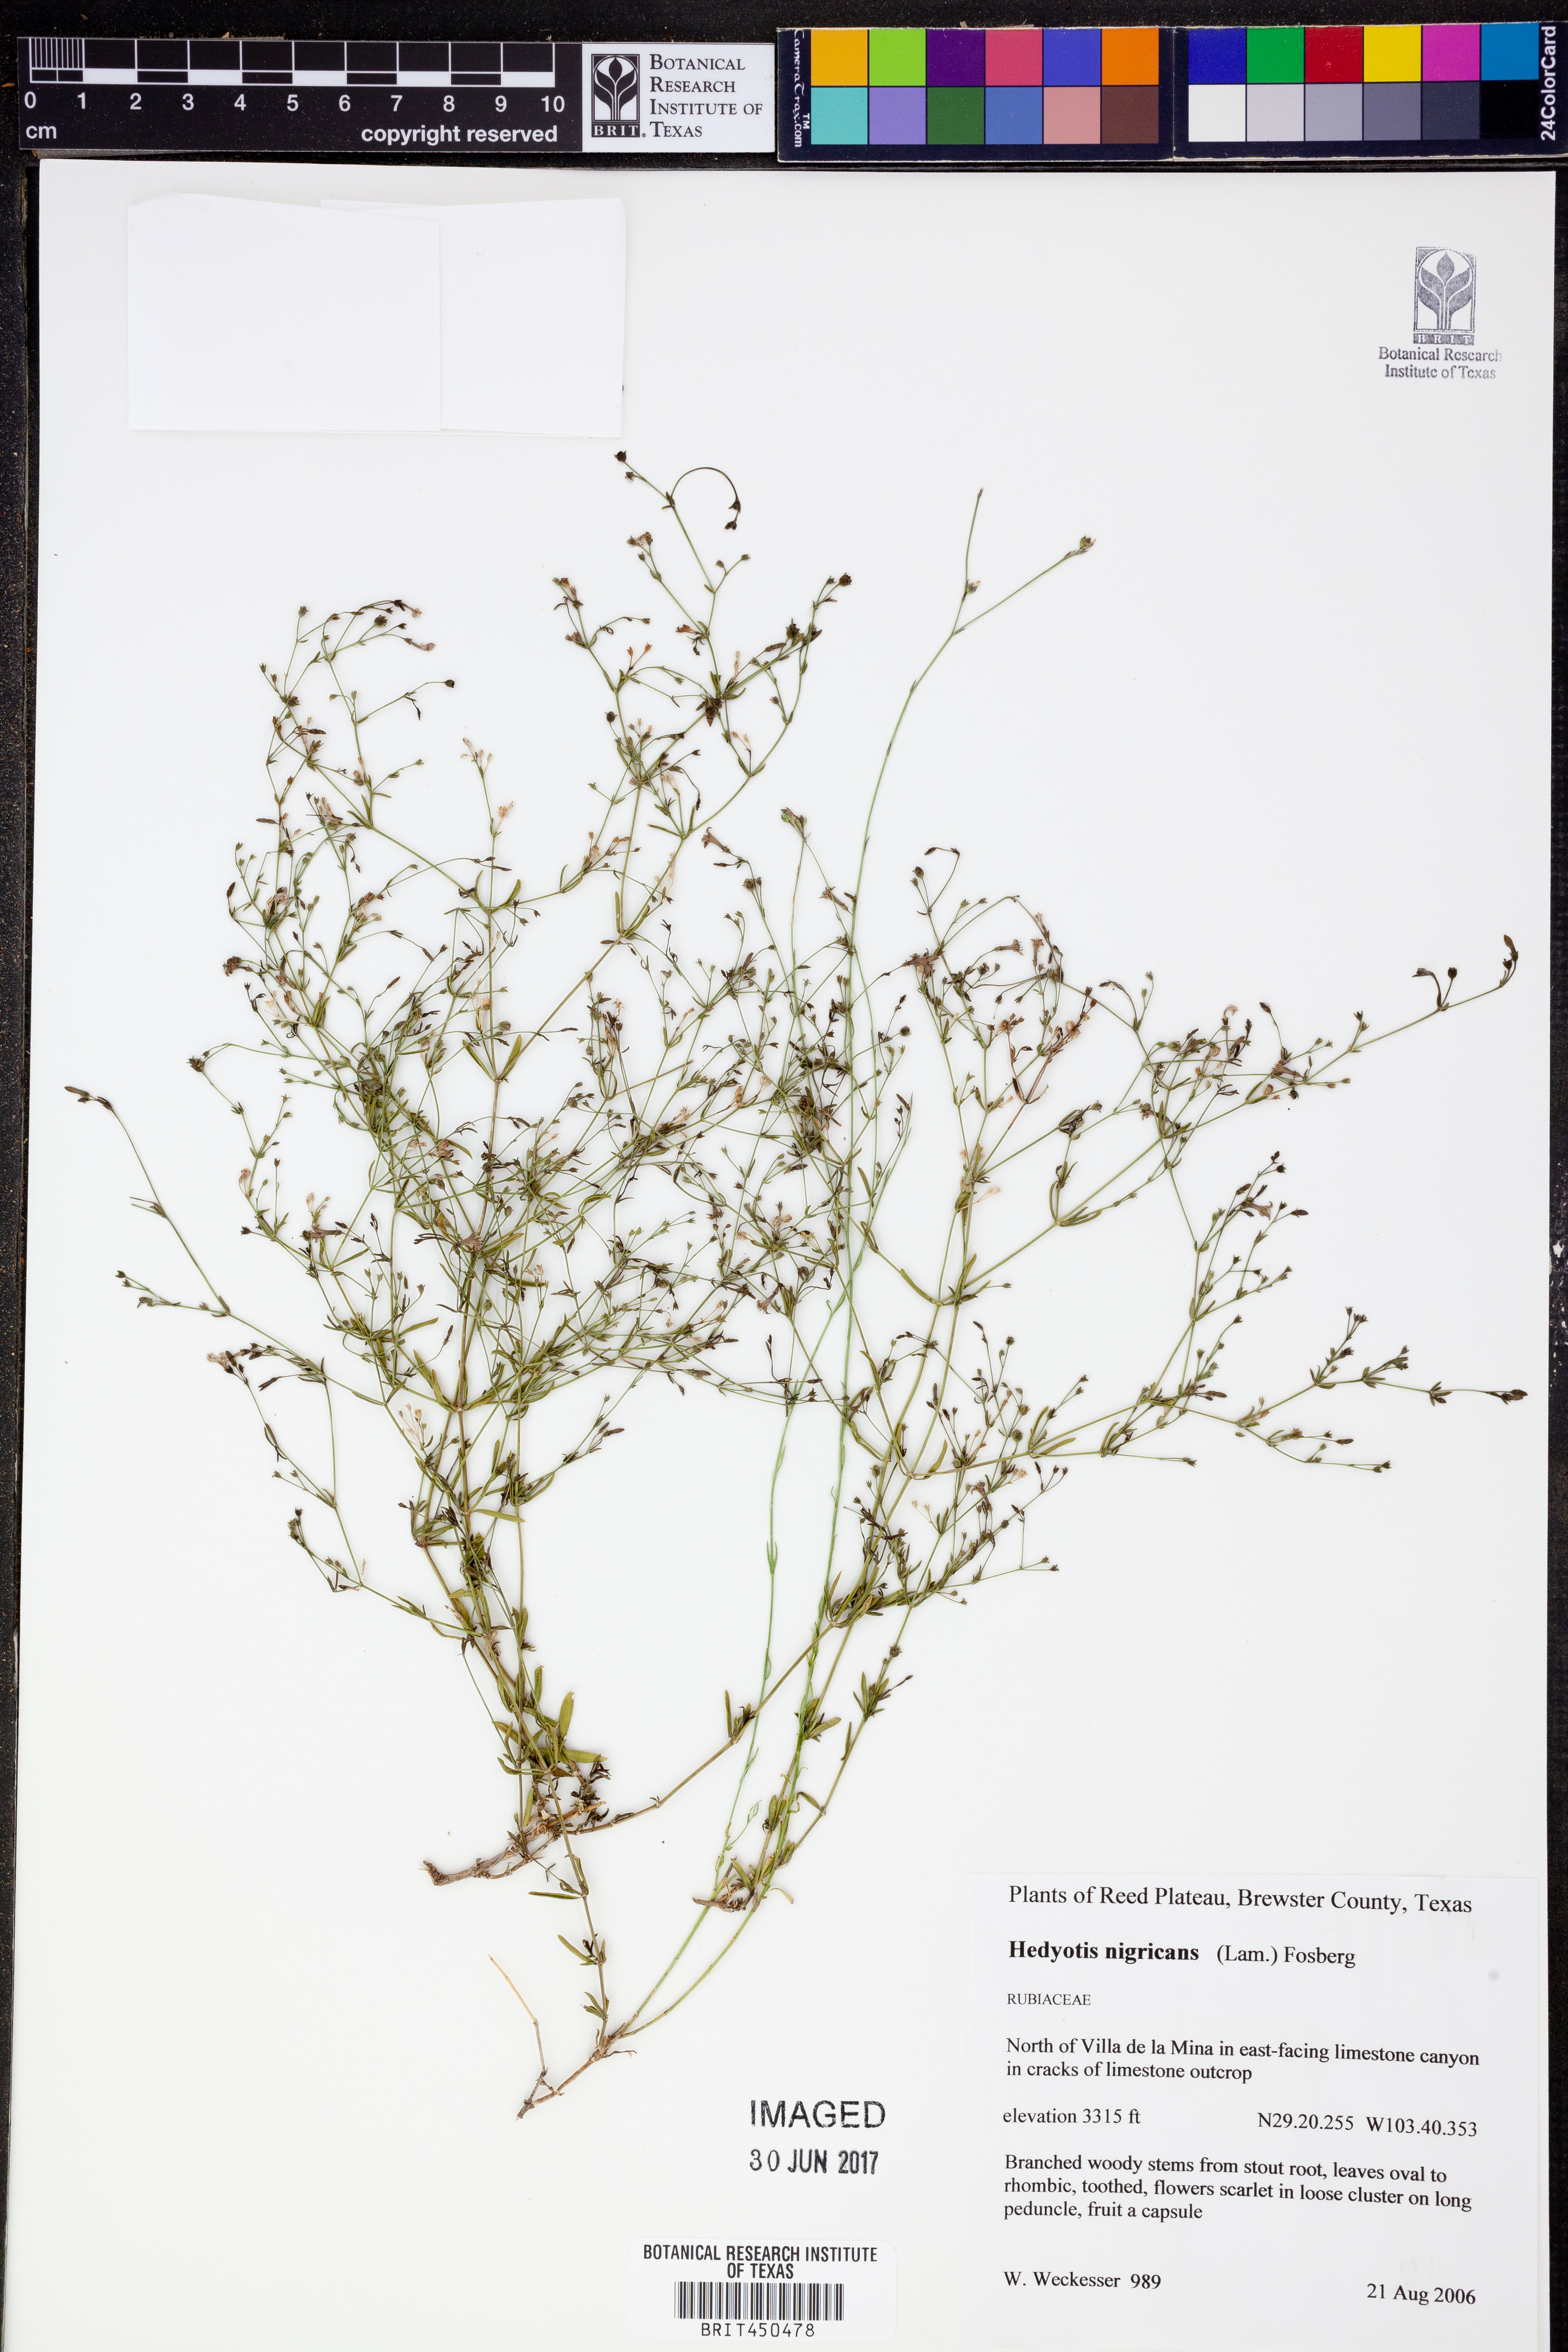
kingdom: Plantae
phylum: Tracheophyta
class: Magnoliopsida
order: Gentianales
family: Rubiaceae
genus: Stenaria
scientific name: Stenaria nigricans
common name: Diamondflowers
